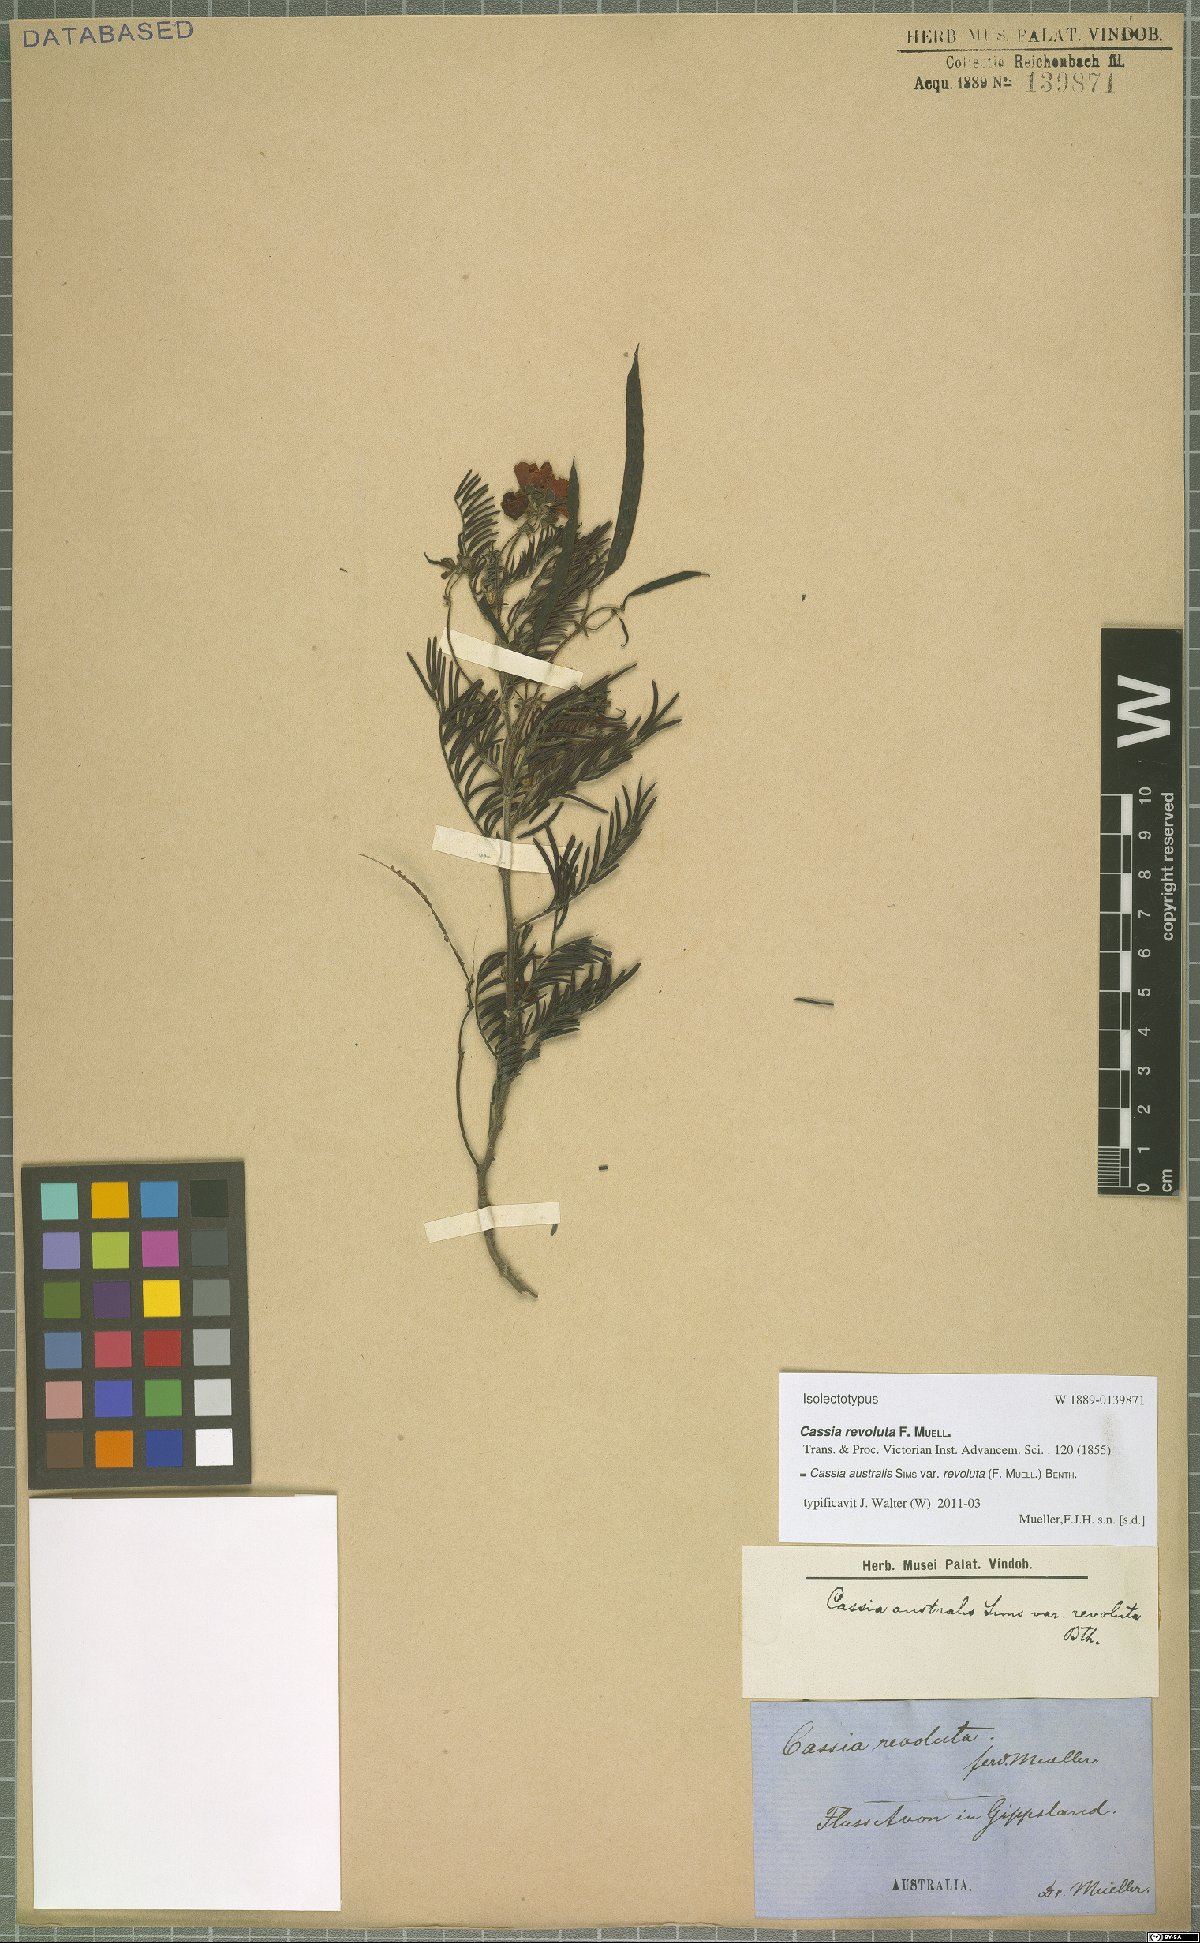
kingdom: Plantae
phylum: Tracheophyta
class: Magnoliopsida
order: Fabales
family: Fabaceae
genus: Senna
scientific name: Senna barronfieldii
